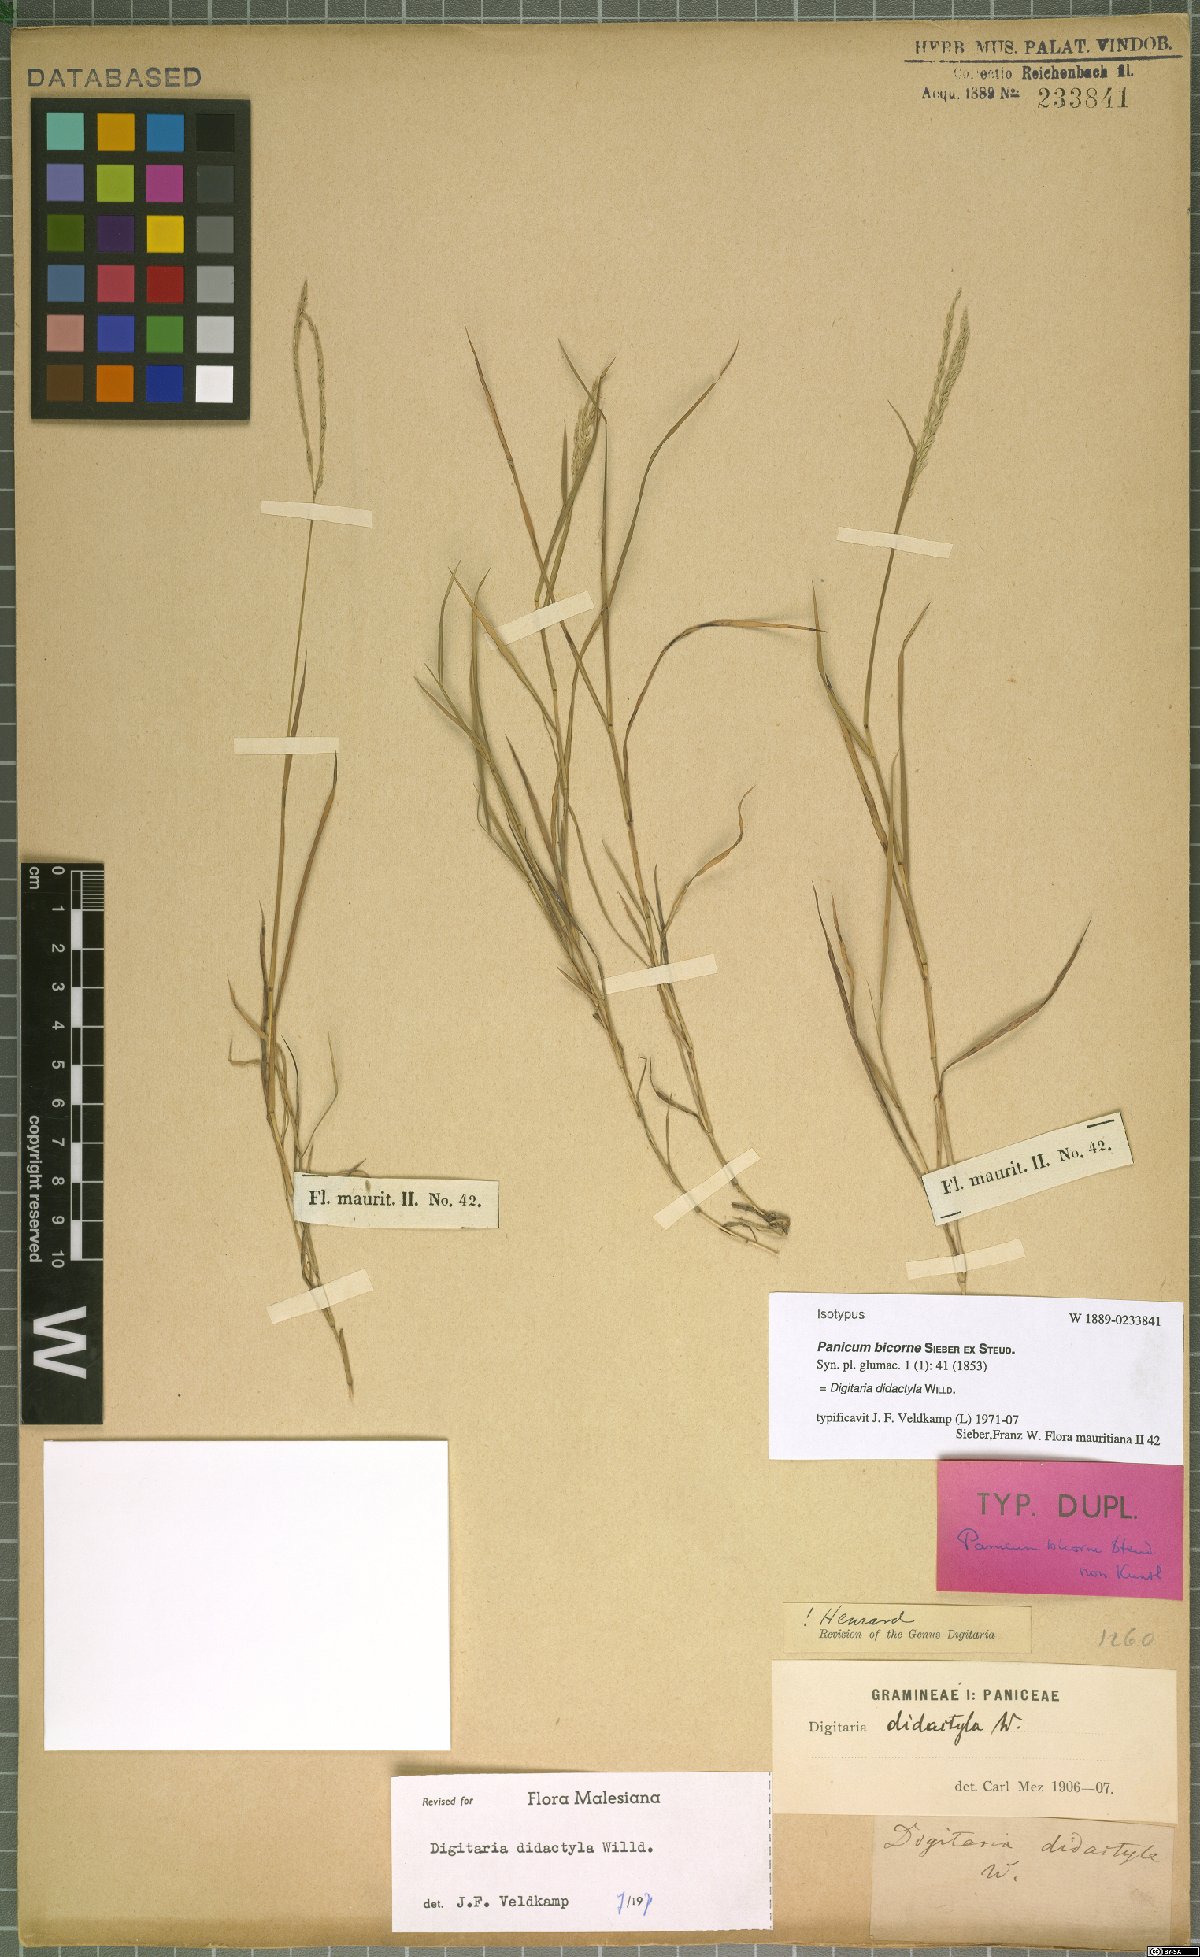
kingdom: Plantae
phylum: Tracheophyta
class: Liliopsida
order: Poales
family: Poaceae
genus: Digitaria
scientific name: Digitaria didactyla
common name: Blue couch
